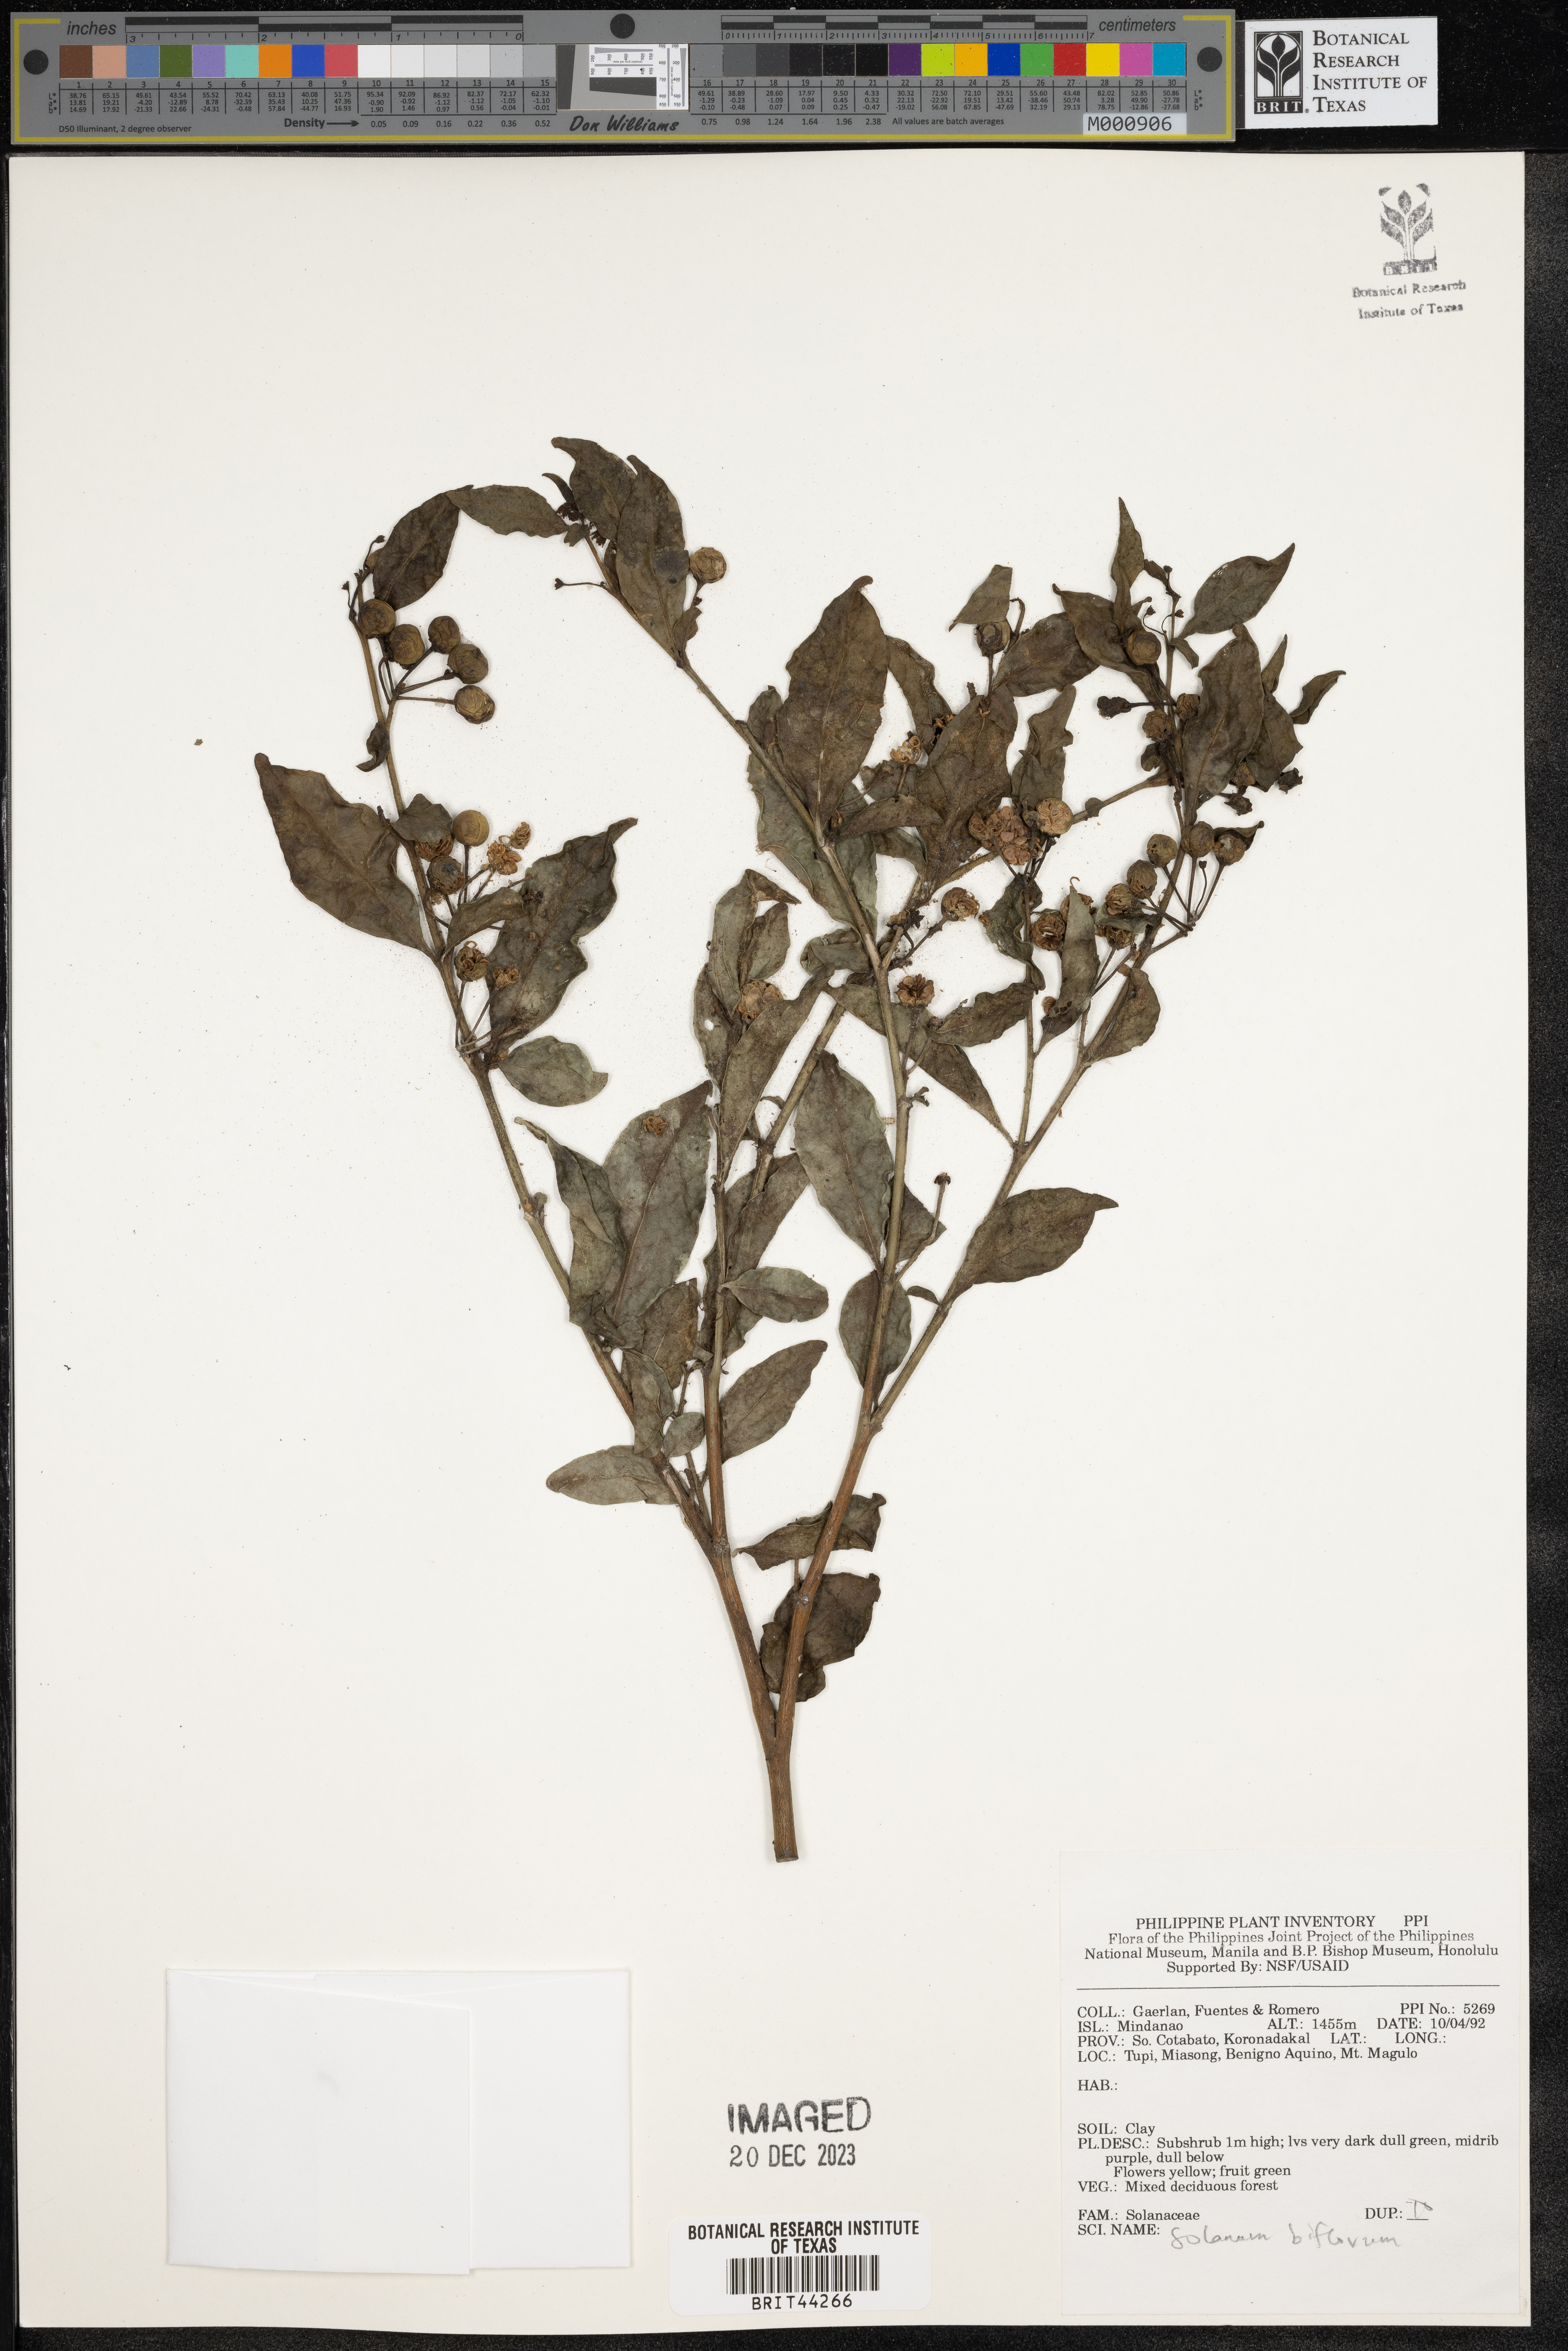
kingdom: Plantae
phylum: Tracheophyta
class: Magnoliopsida
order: Solanales
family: Solanaceae
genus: Lycianthes
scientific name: Lycianthes biflora
